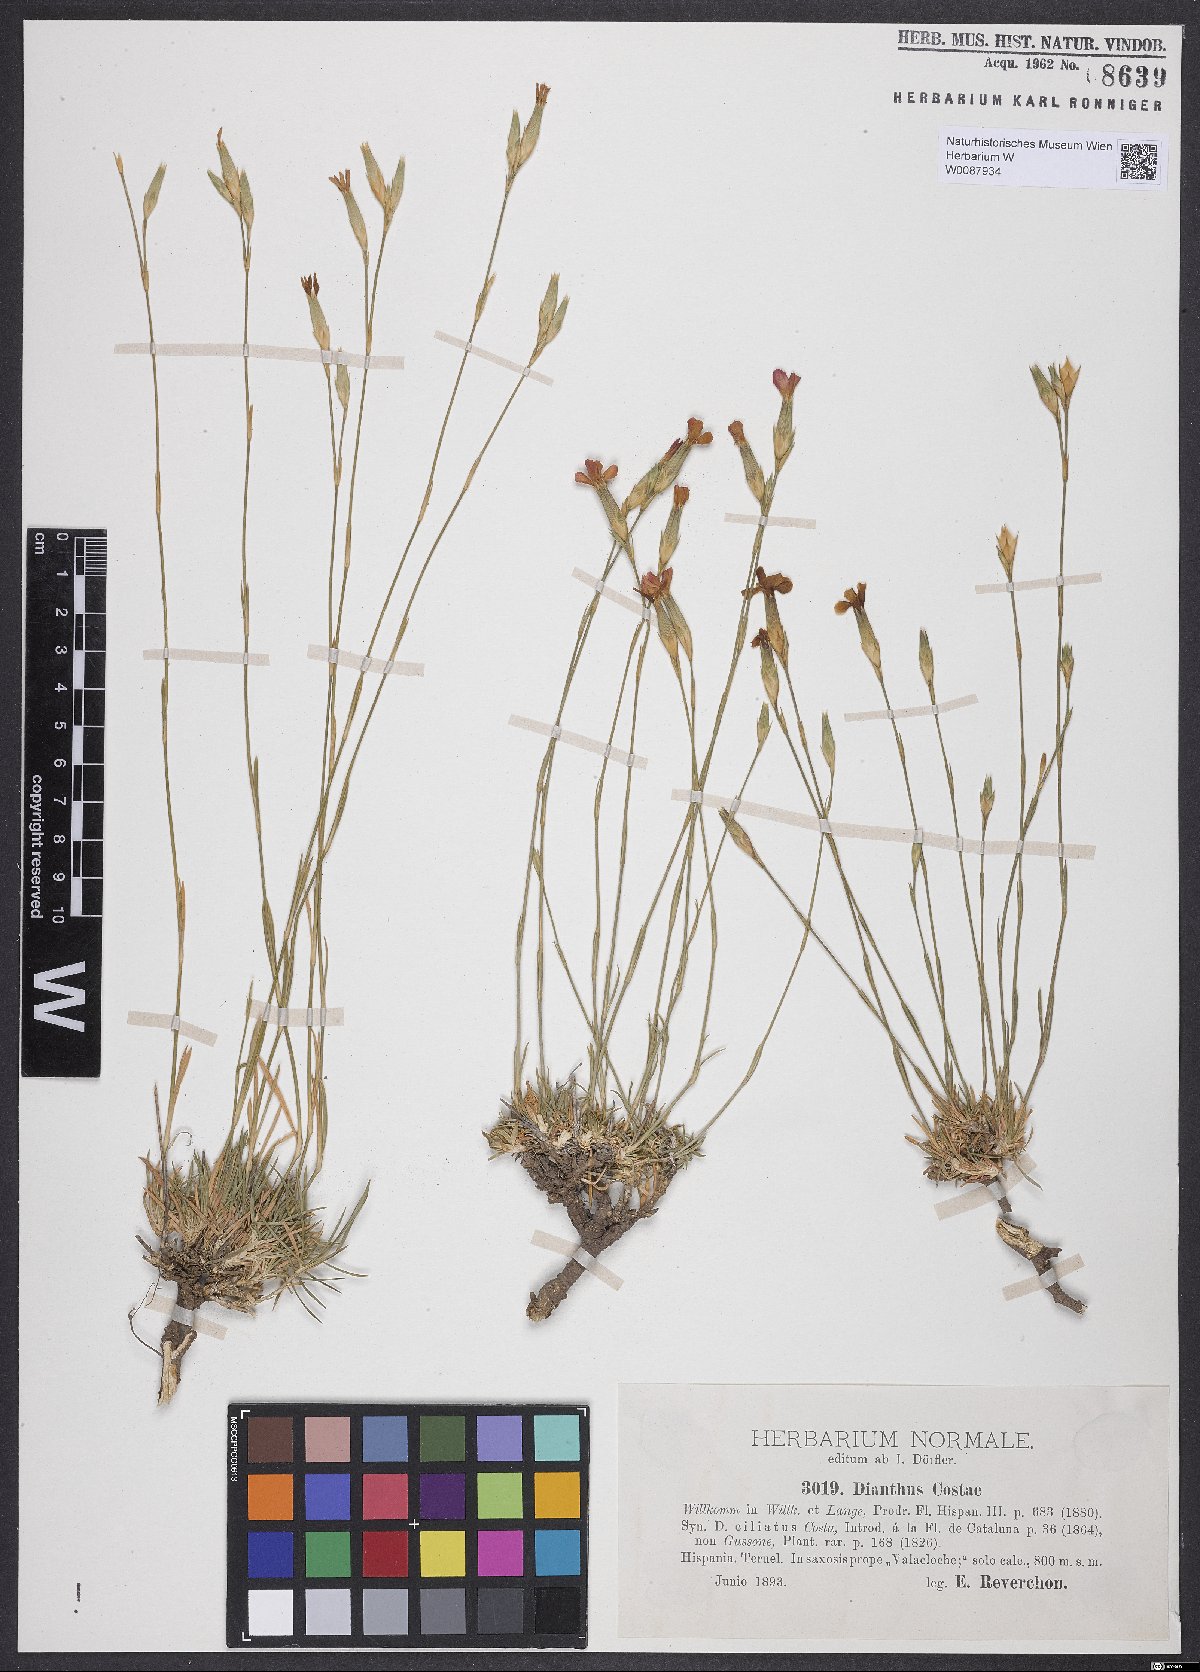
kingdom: Plantae
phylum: Tracheophyta
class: Magnoliopsida
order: Caryophyllales
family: Caryophyllaceae
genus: Dianthus
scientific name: Dianthus algetanus
